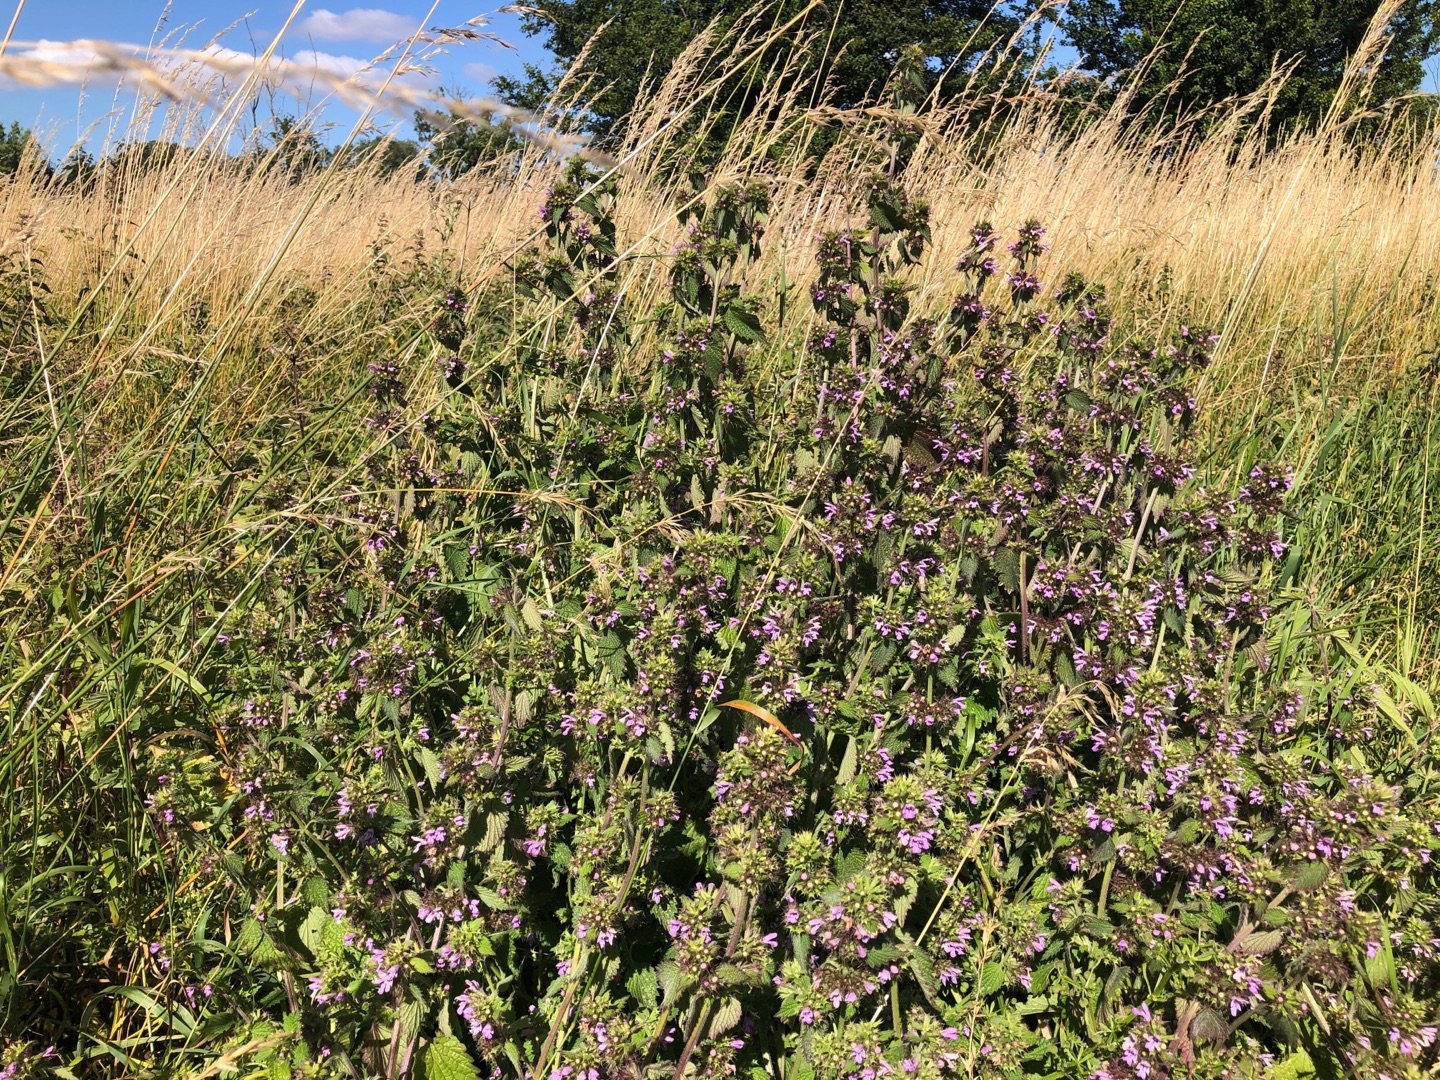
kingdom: Plantae
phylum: Tracheophyta
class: Magnoliopsida
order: Lamiales
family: Lamiaceae
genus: Ballota
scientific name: Ballota nigra
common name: Rød tandbæger
